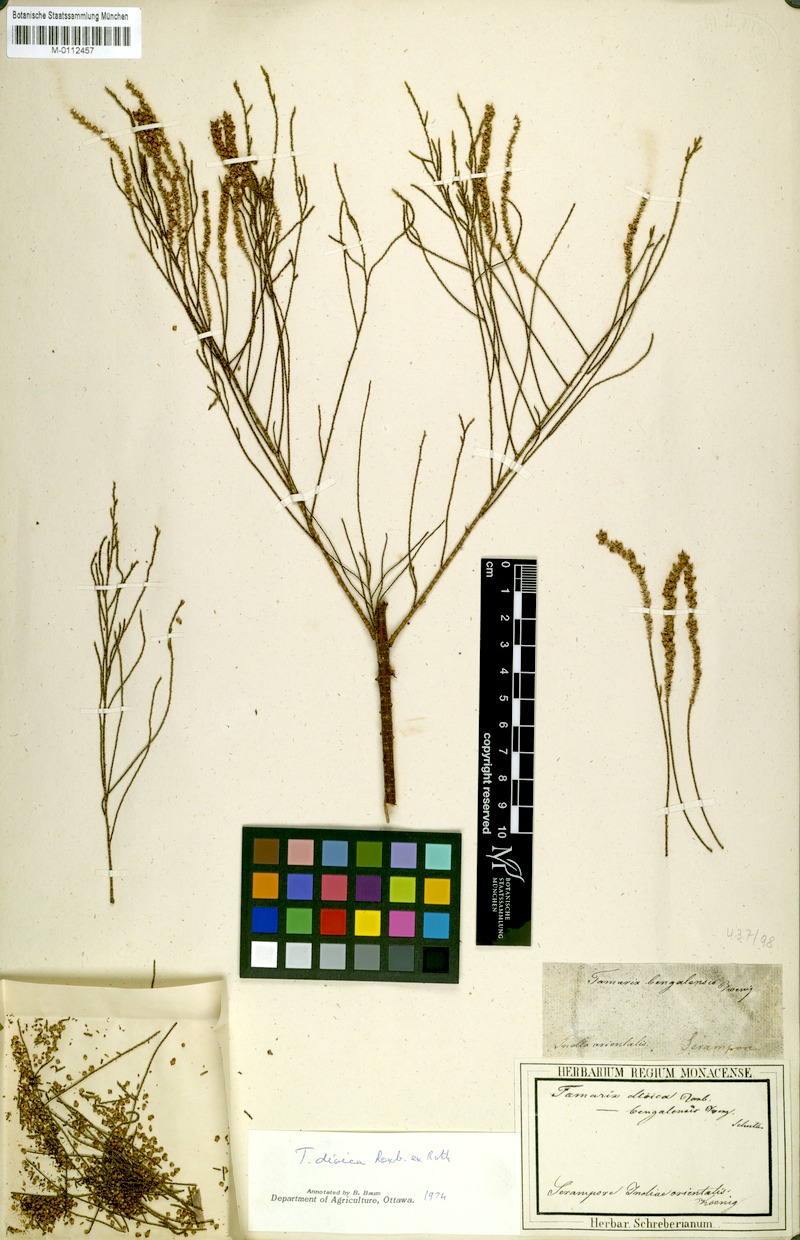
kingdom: Plantae
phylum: Tracheophyta
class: Magnoliopsida
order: Caryophyllales
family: Tamaricaceae
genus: Tamarix
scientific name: Tamarix indica
